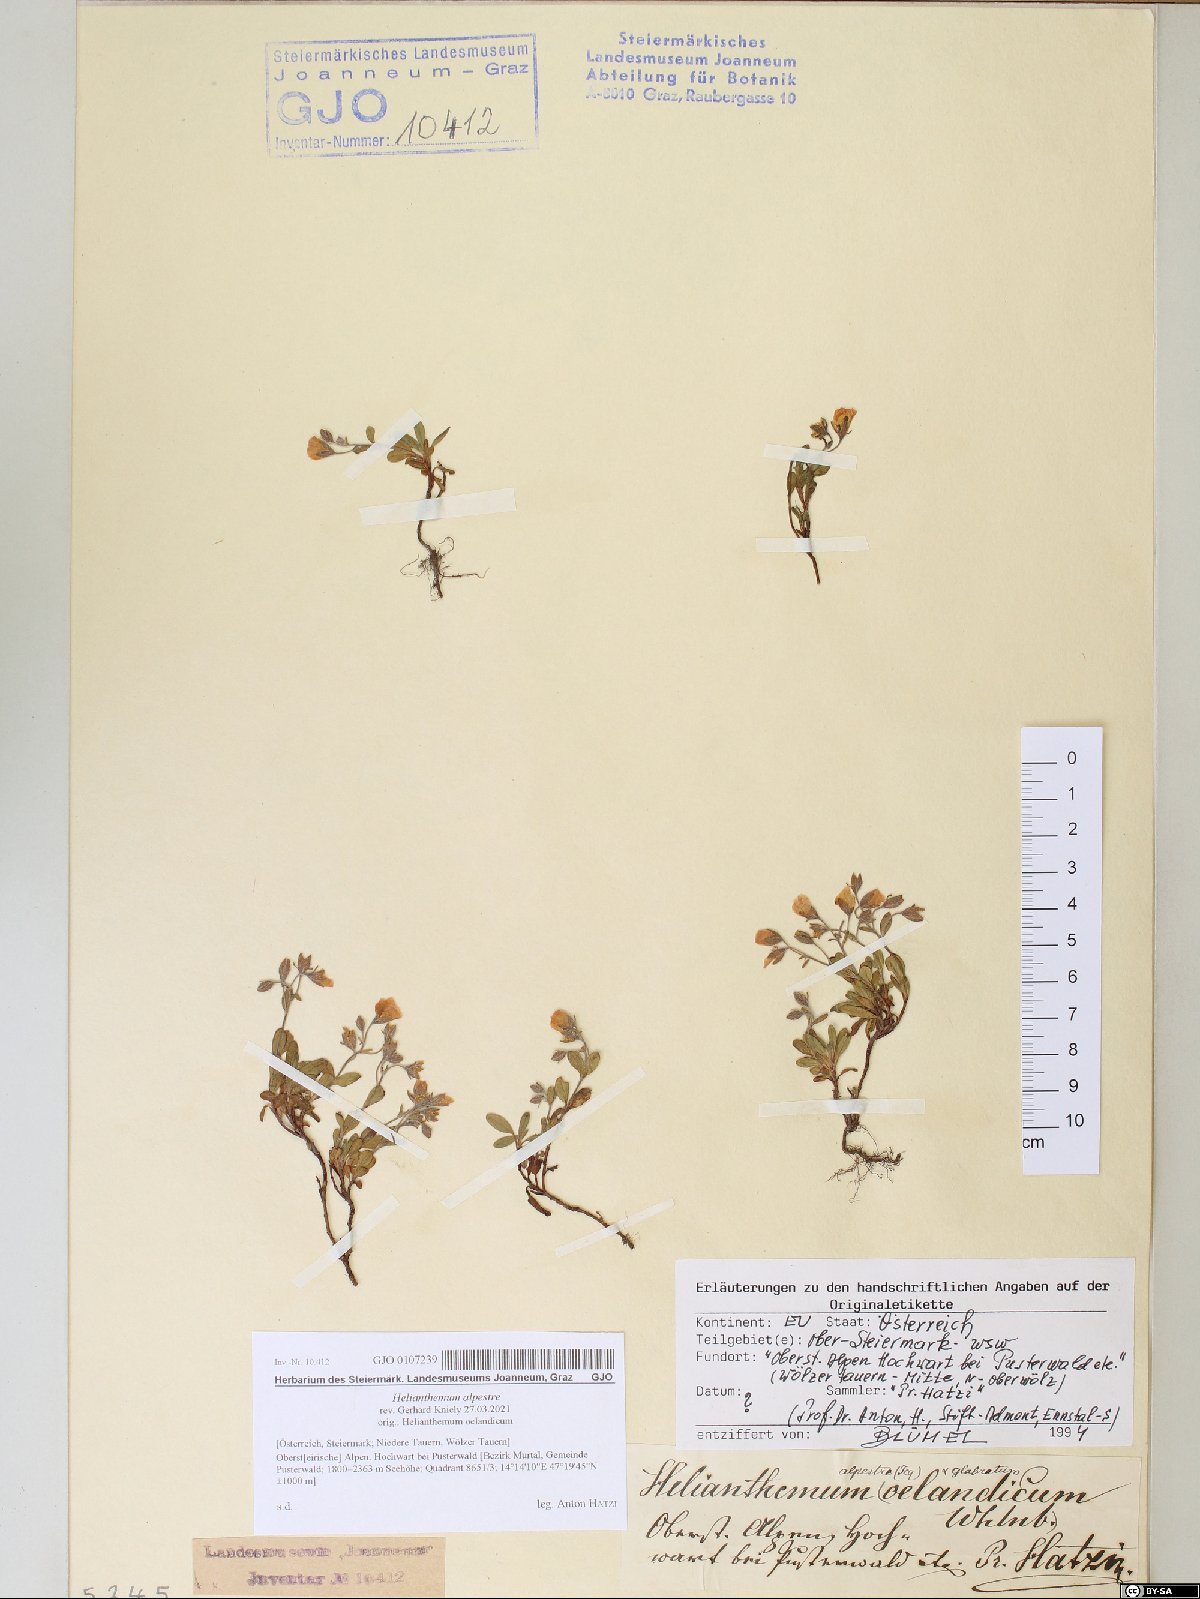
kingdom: Plantae
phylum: Tracheophyta
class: Magnoliopsida
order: Malvales
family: Cistaceae
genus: Helianthemum
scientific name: Helianthemum alpestre
